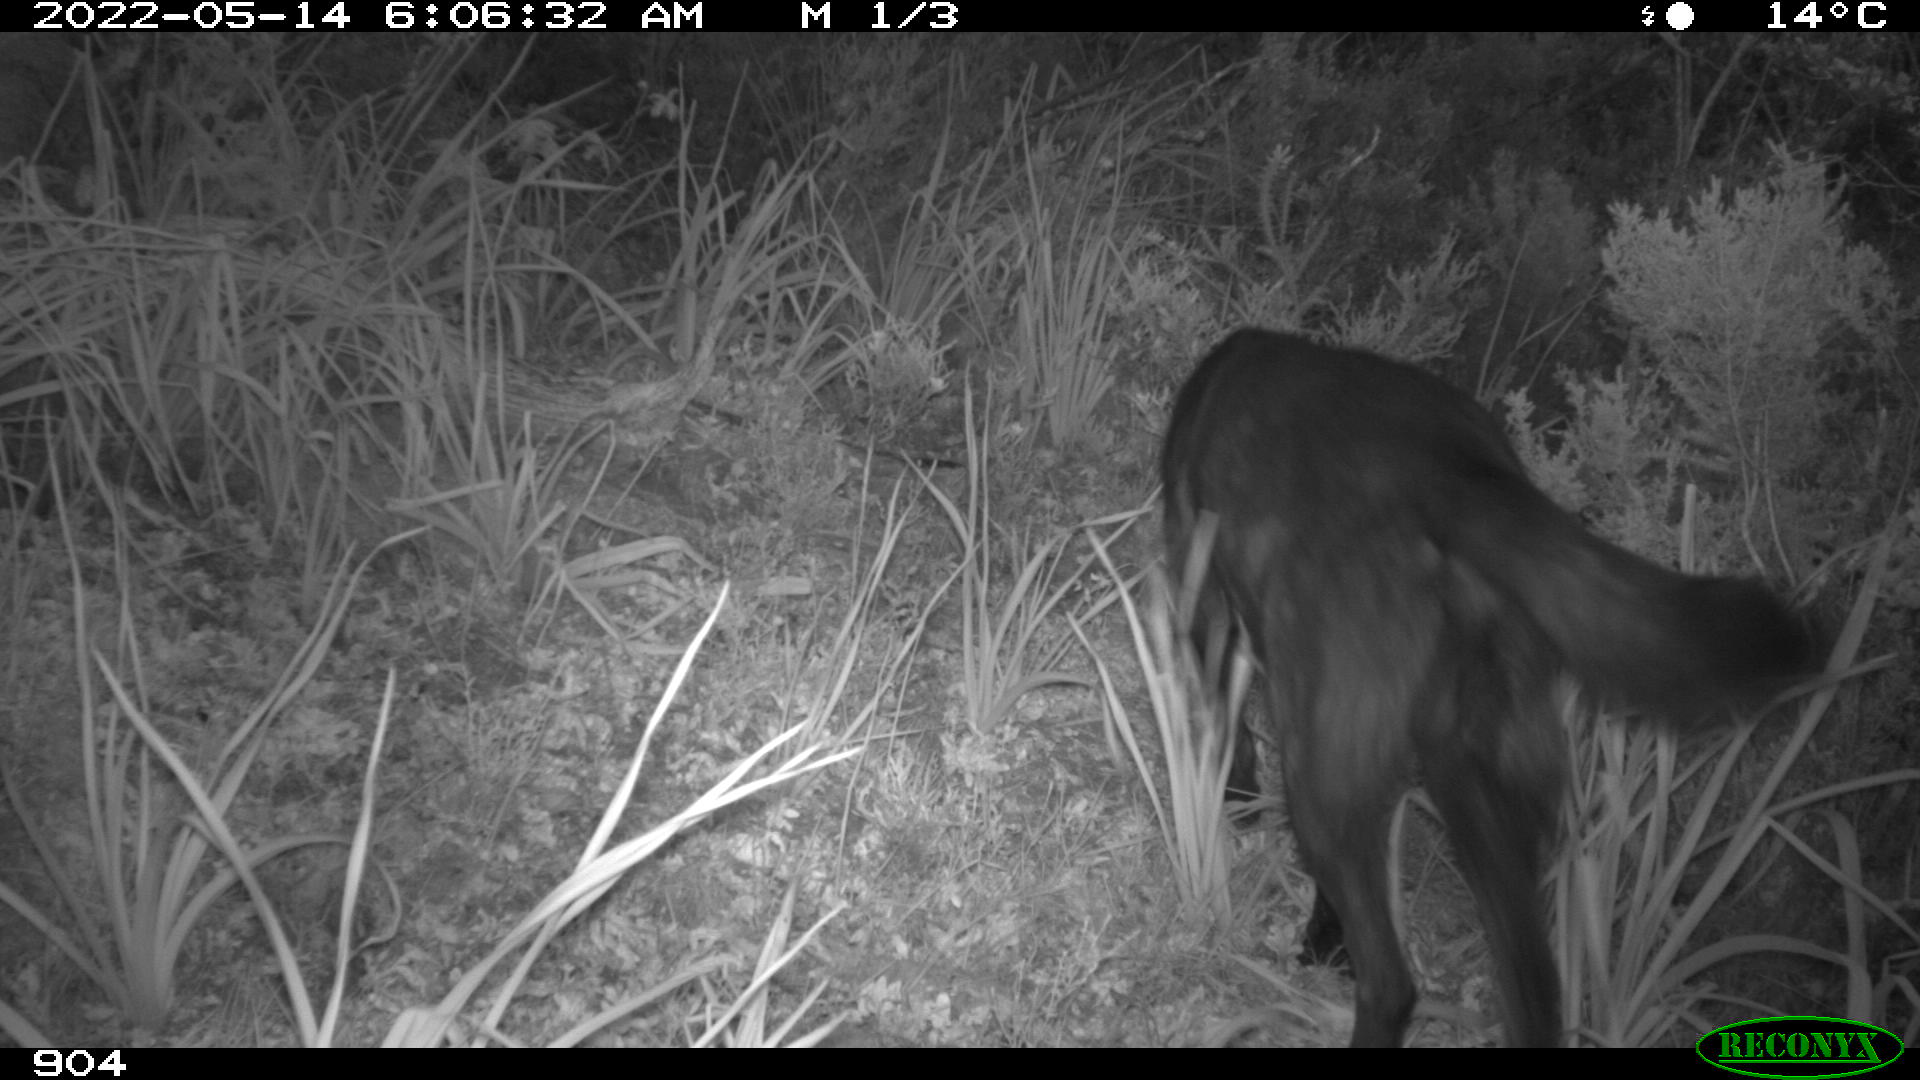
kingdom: Animalia
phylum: Chordata
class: Mammalia
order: Carnivora
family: Canidae
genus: Canis
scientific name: Canis lupus
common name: Gray wolf
